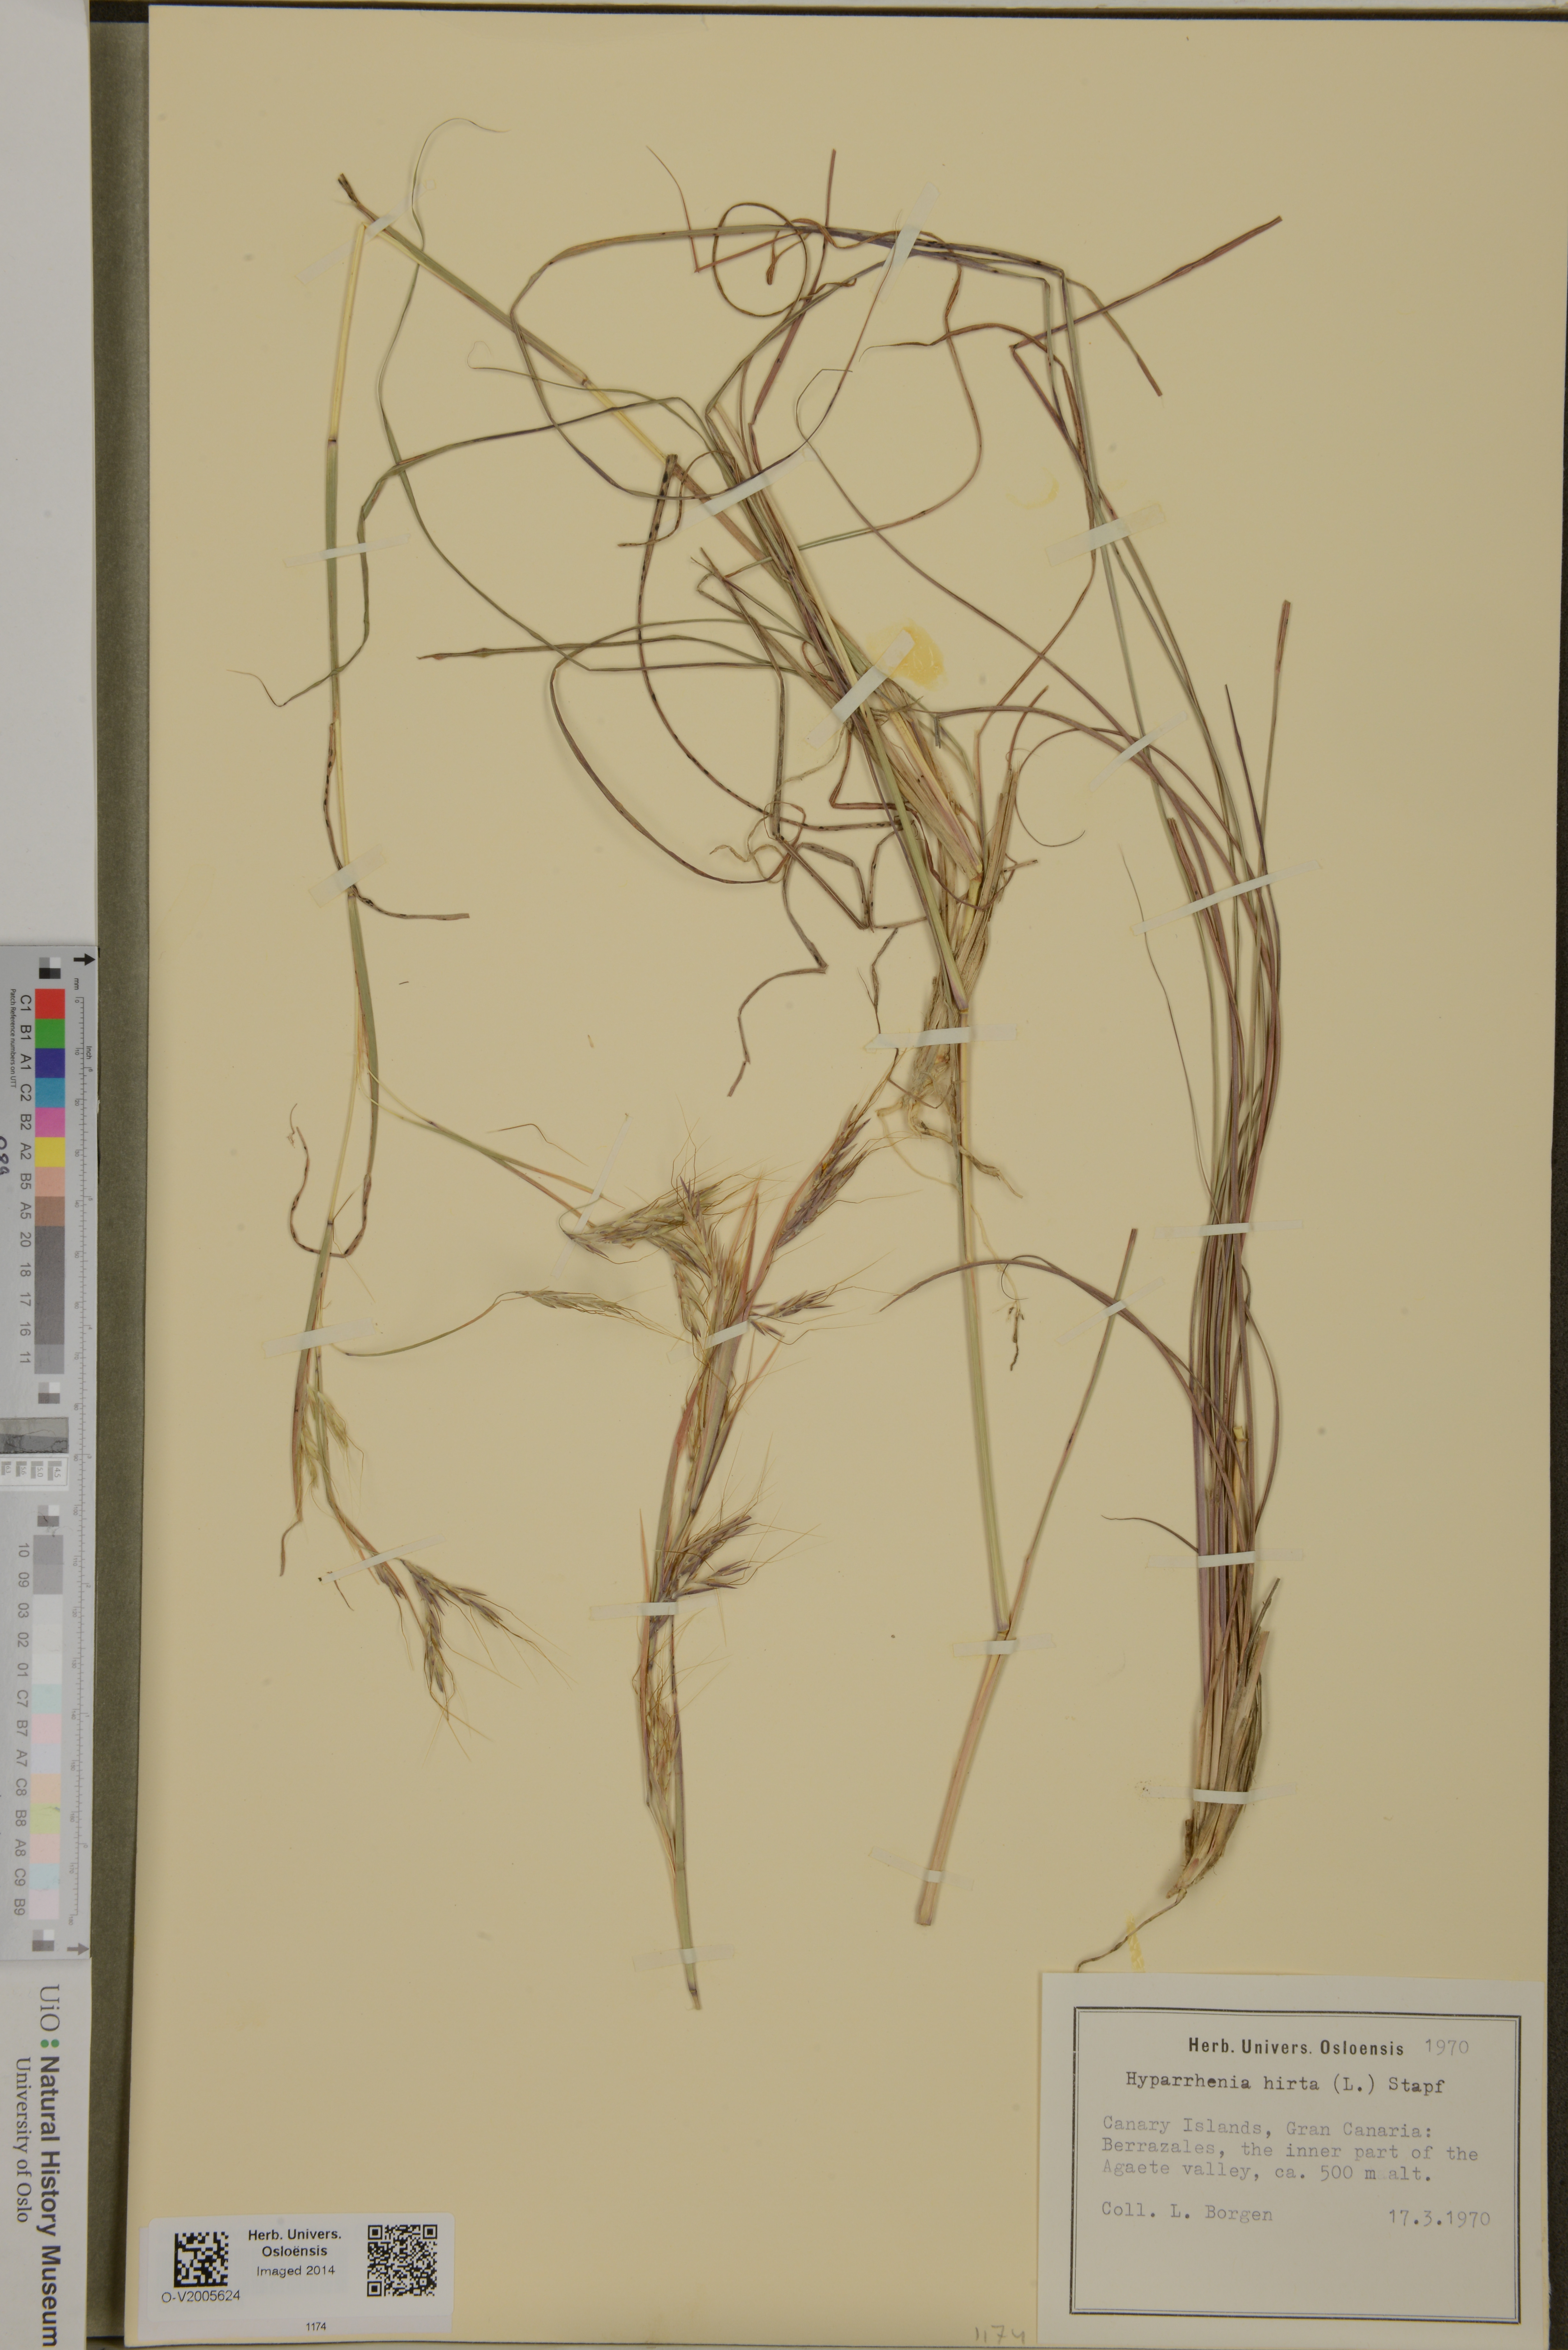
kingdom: Plantae
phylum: Tracheophyta
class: Liliopsida
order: Poales
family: Poaceae
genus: Hyparrhenia
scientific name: Hyparrhenia hirta
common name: Thatching grass
